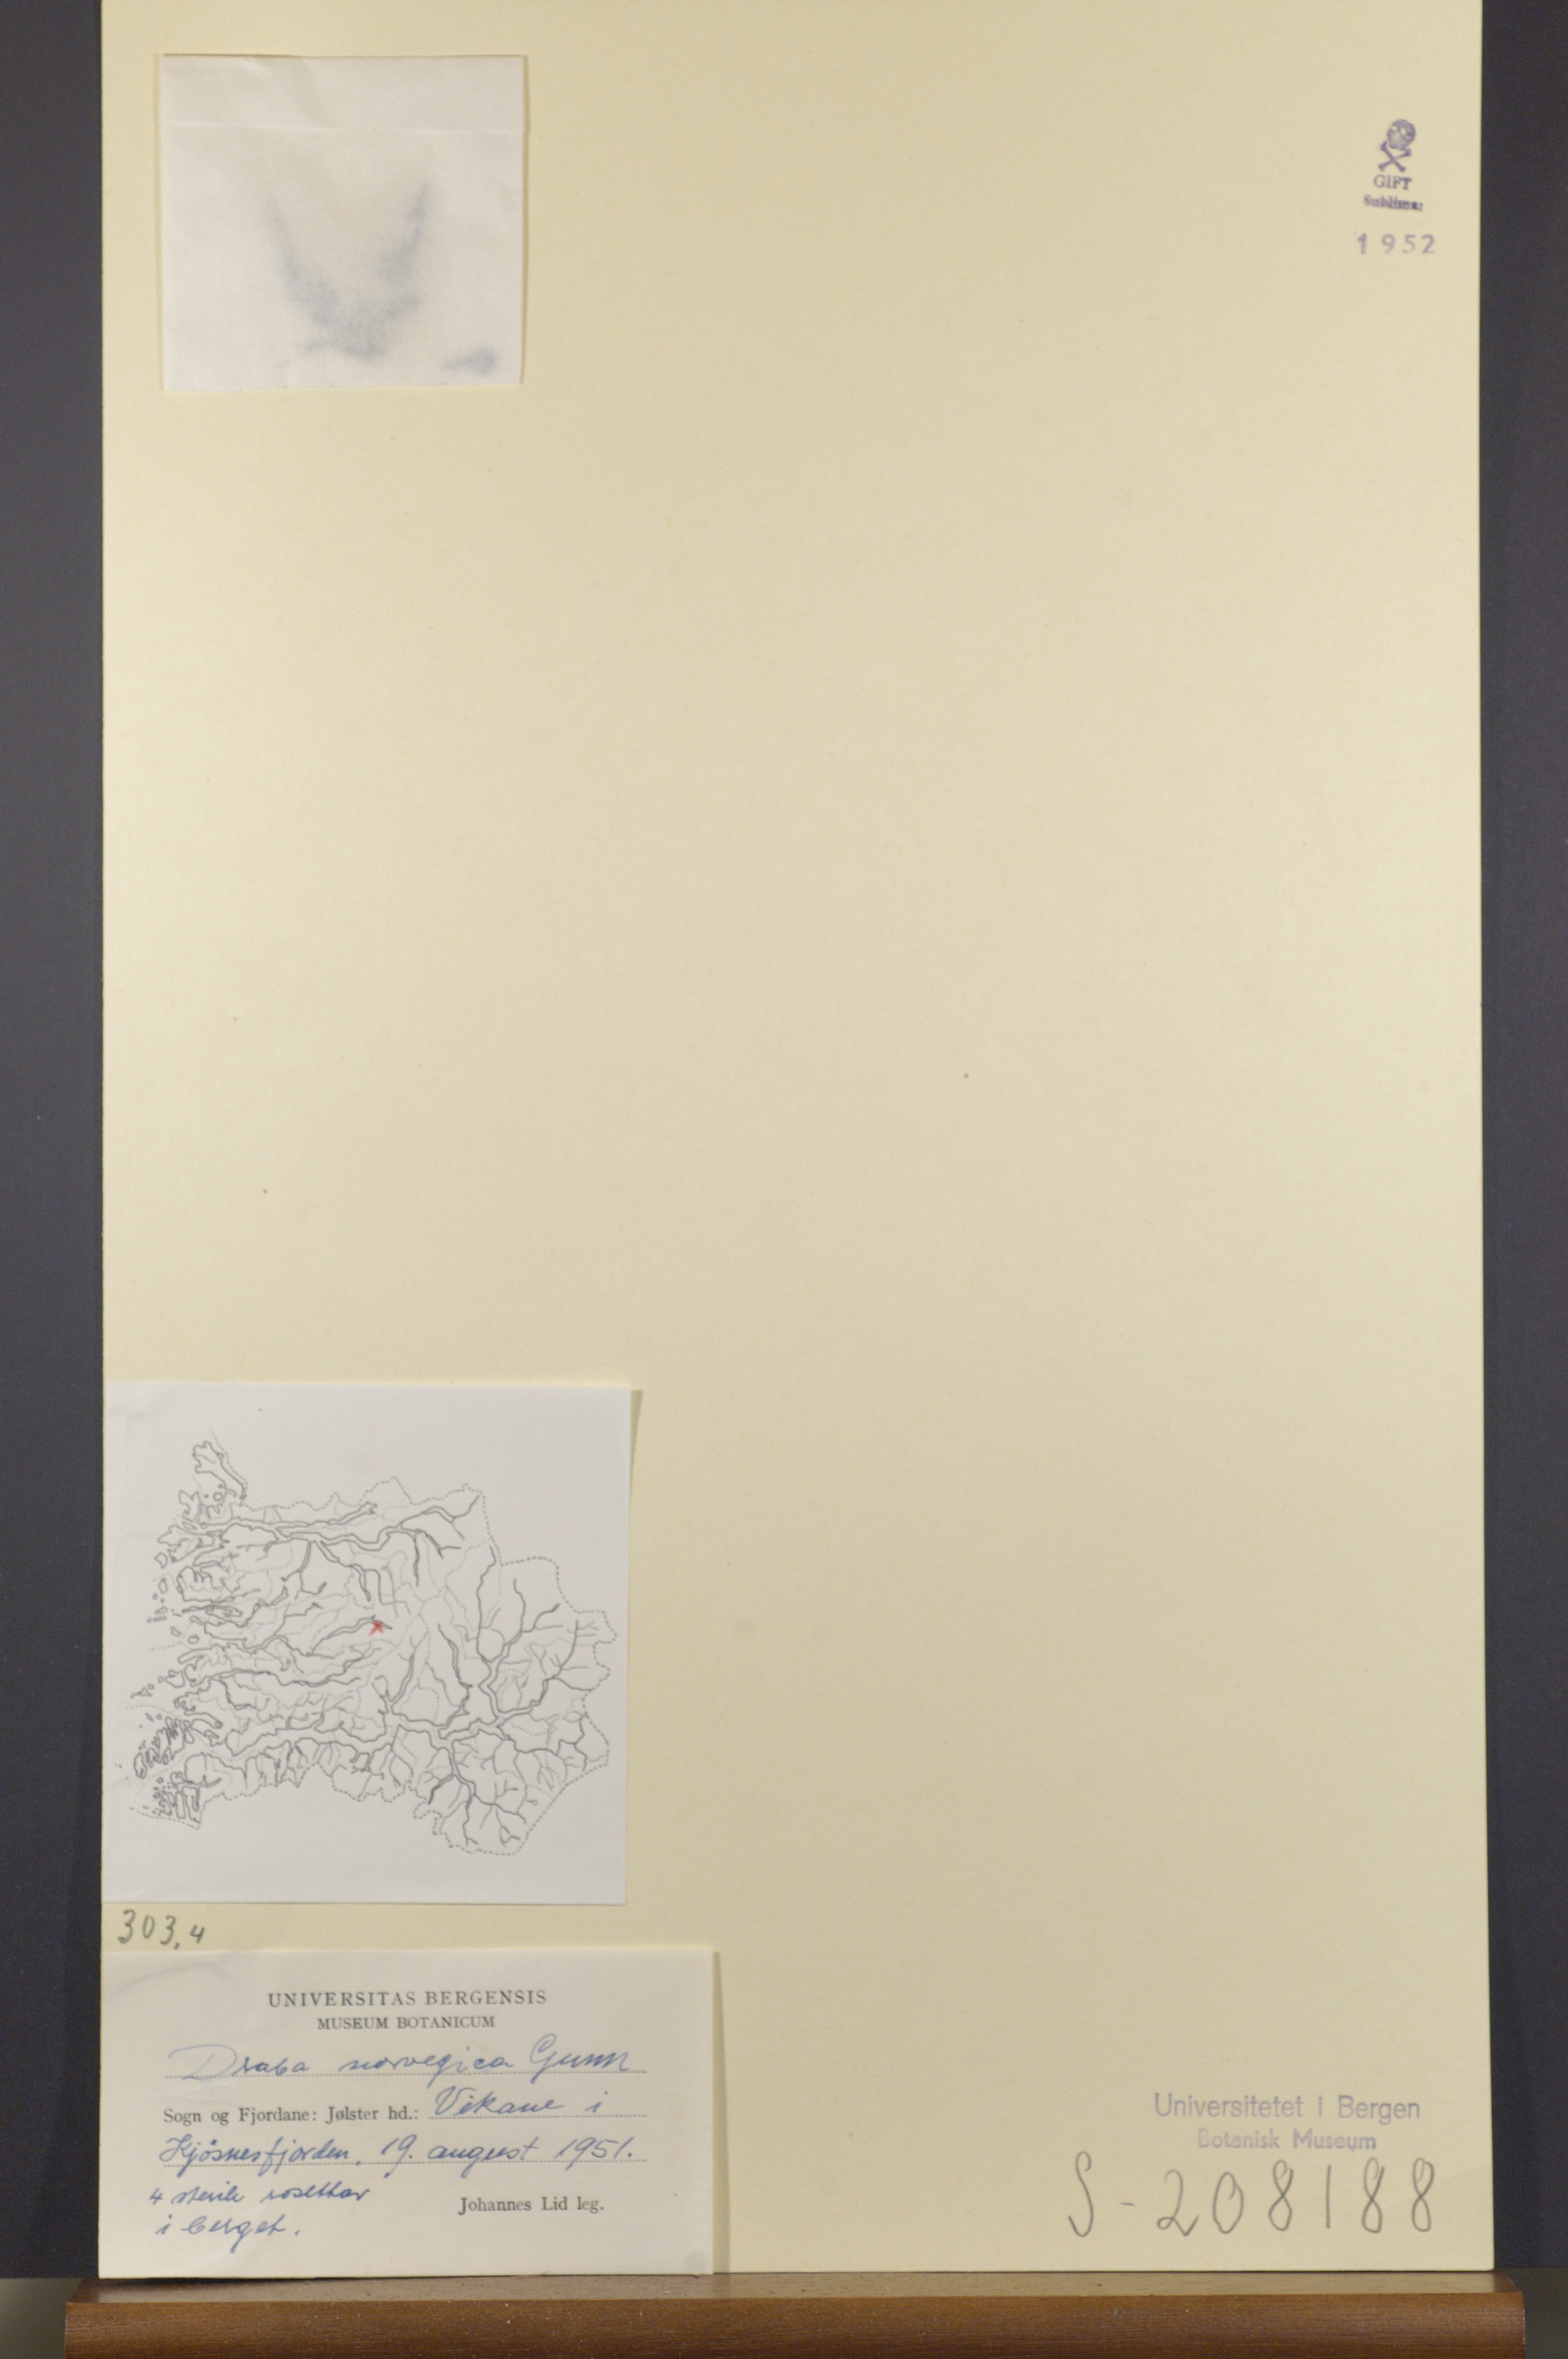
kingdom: Plantae
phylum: Tracheophyta
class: Magnoliopsida
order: Brassicales
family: Brassicaceae
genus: Draba
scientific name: Draba norvegica
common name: Rock whitlowgrass
